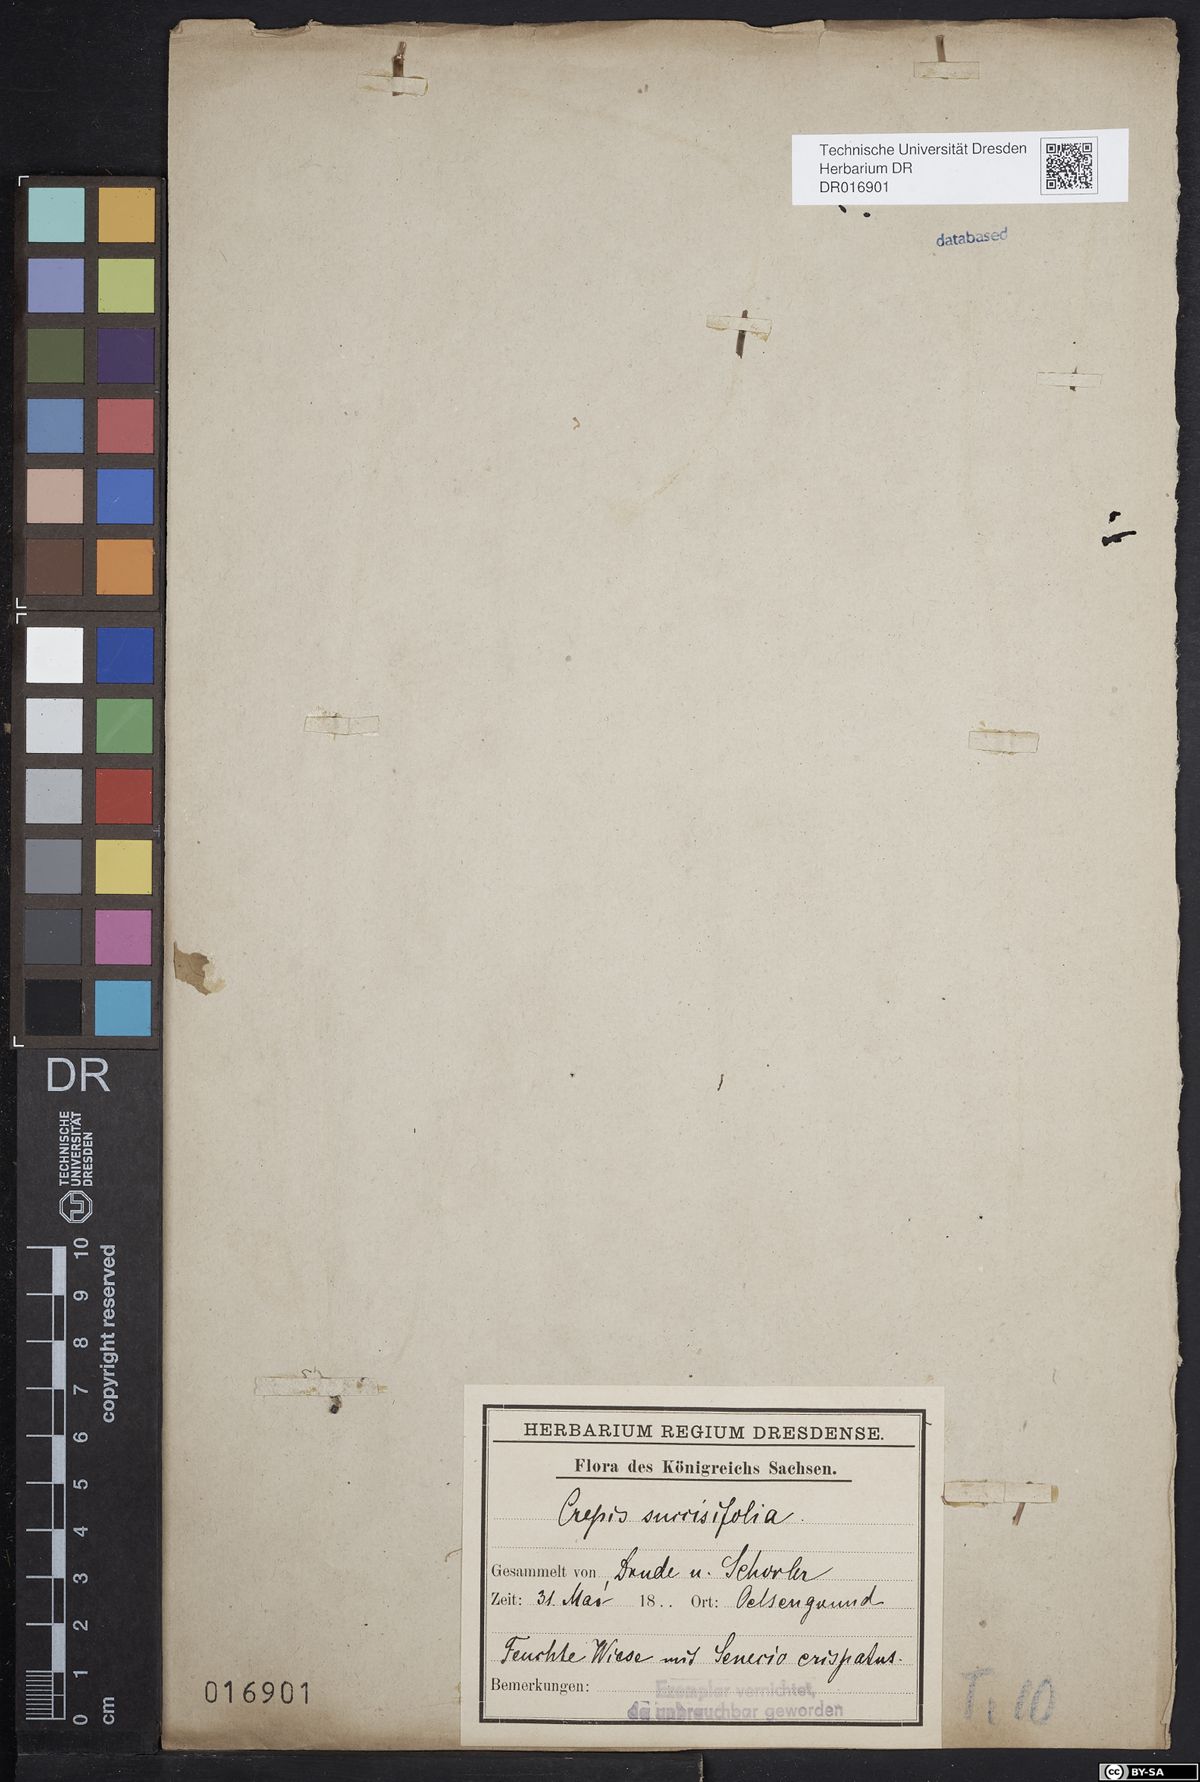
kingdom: Plantae
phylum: Tracheophyta
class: Magnoliopsida
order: Asterales
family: Asteraceae
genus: Crepis
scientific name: Crepis mollis
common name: Northern hawk's-beard
